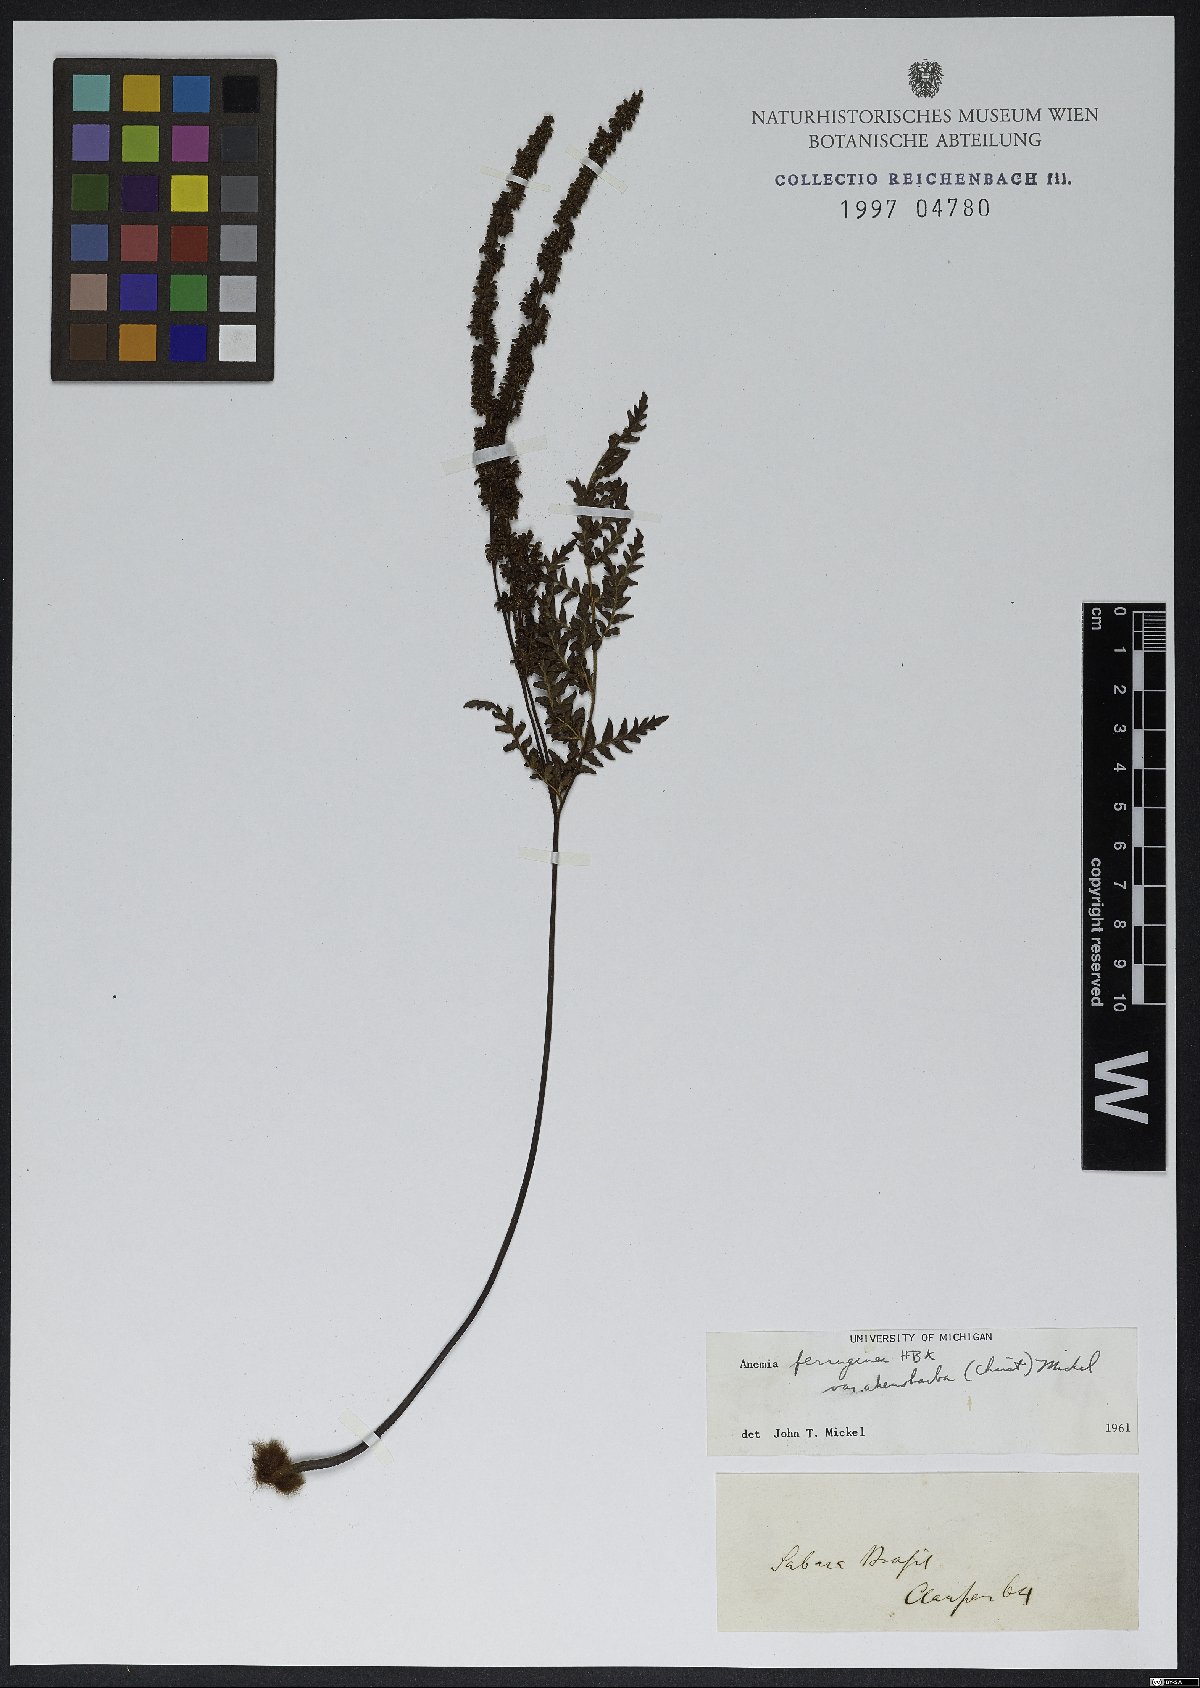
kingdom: Plantae
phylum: Tracheophyta
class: Polypodiopsida
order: Schizaeales
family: Anemiaceae
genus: Anemia
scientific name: Anemia ferruginea
